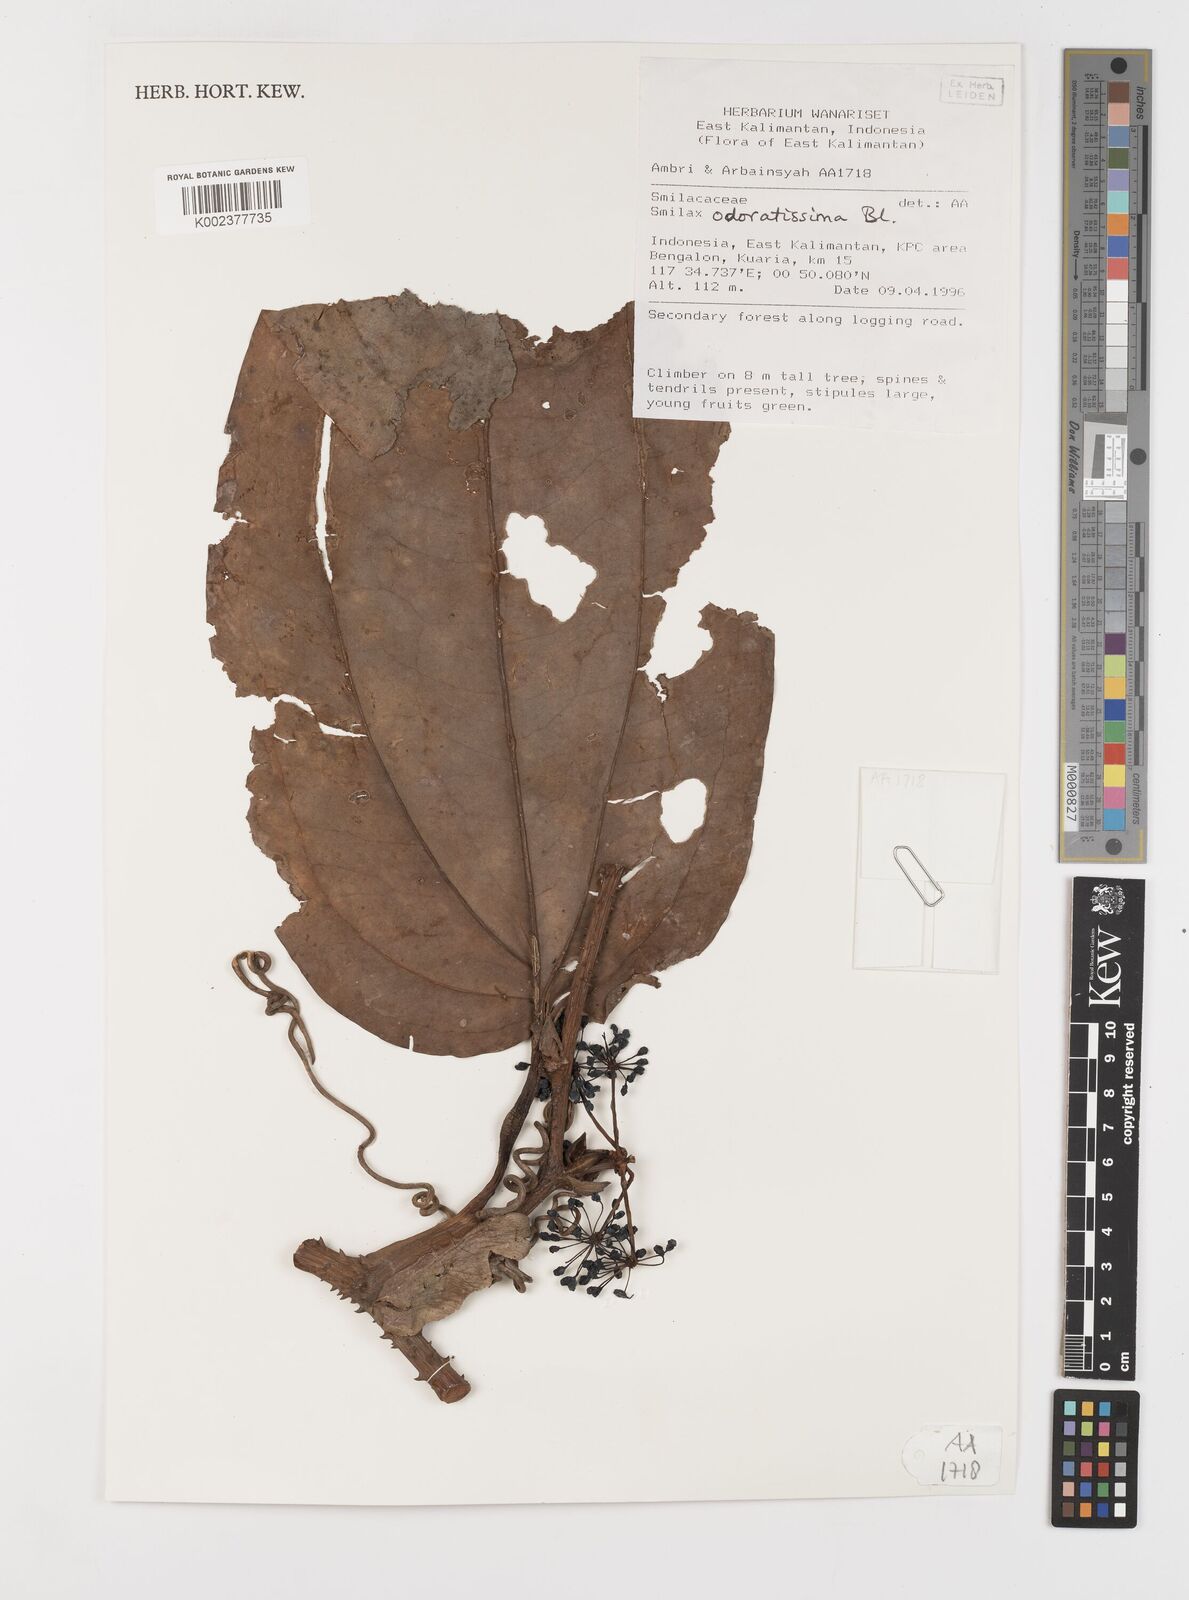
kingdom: Plantae
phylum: Tracheophyta
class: Liliopsida
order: Liliales
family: Smilacaceae
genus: Smilax
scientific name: Smilax odoratissima
